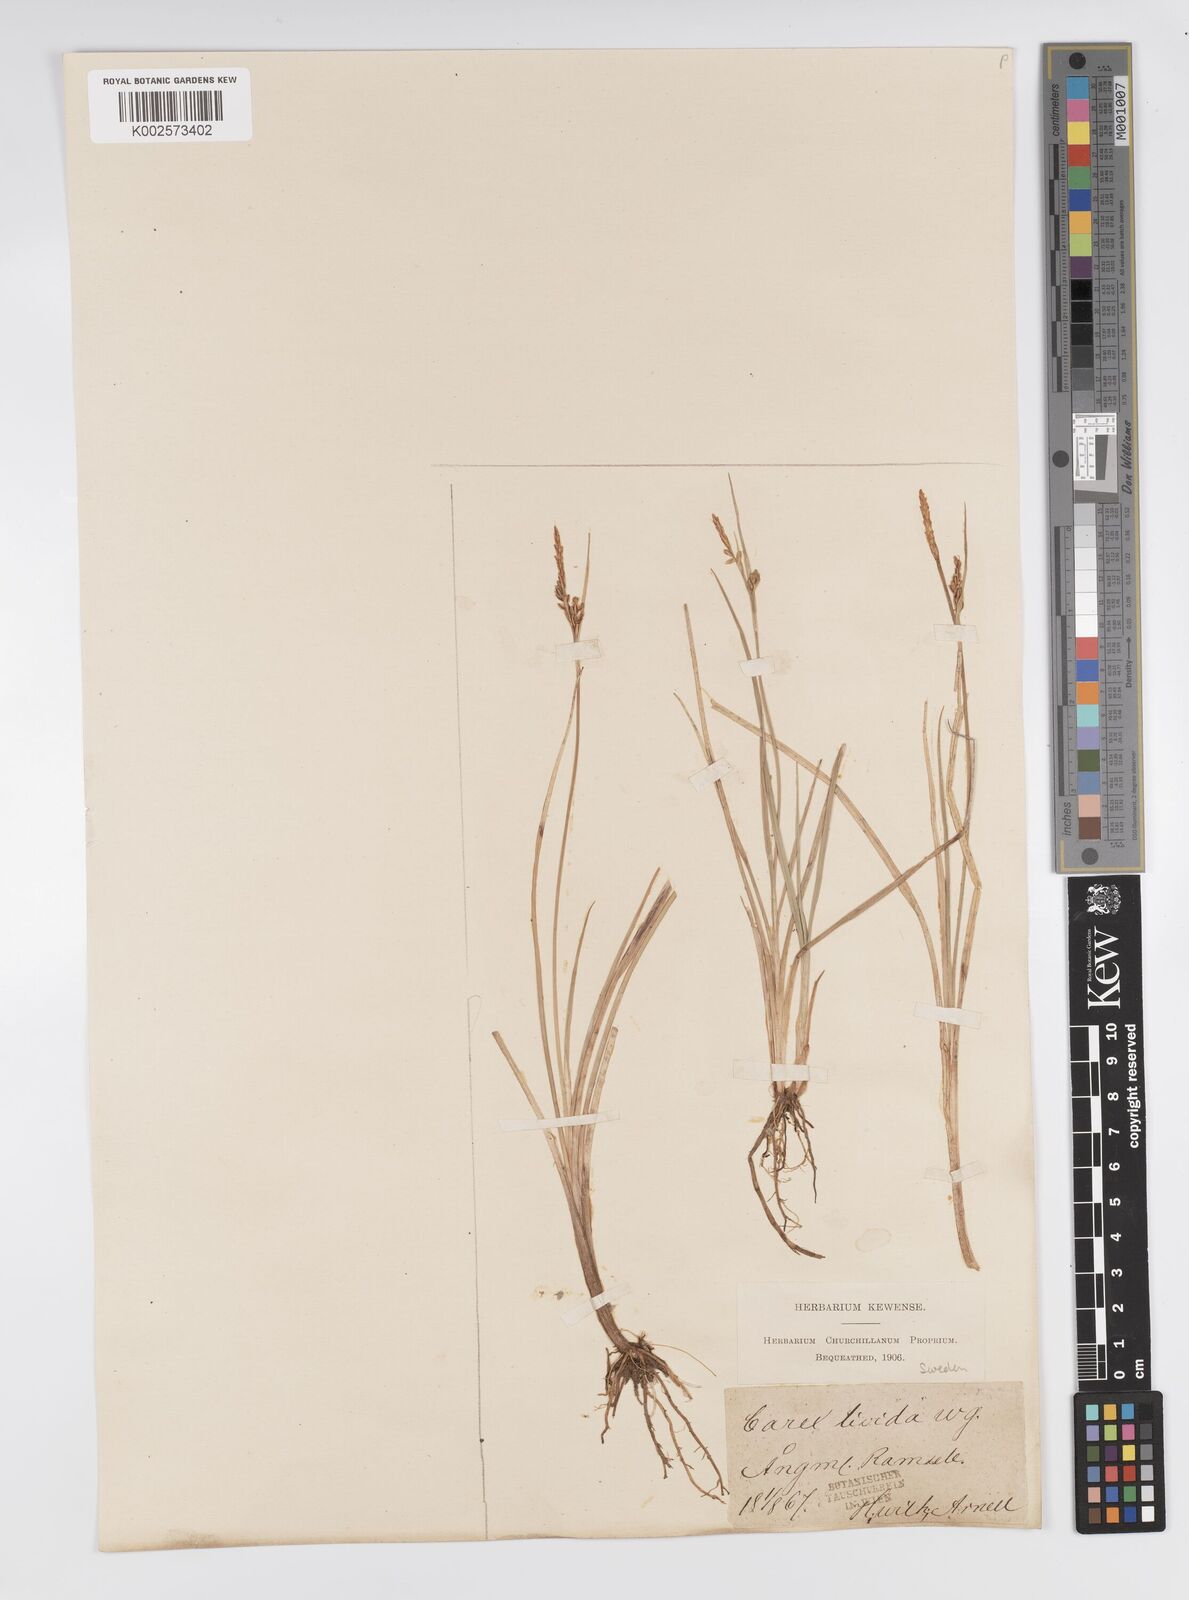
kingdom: Plantae
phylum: Tracheophyta
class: Liliopsida
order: Poales
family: Cyperaceae
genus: Carex
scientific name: Carex livida
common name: Livid sedge
